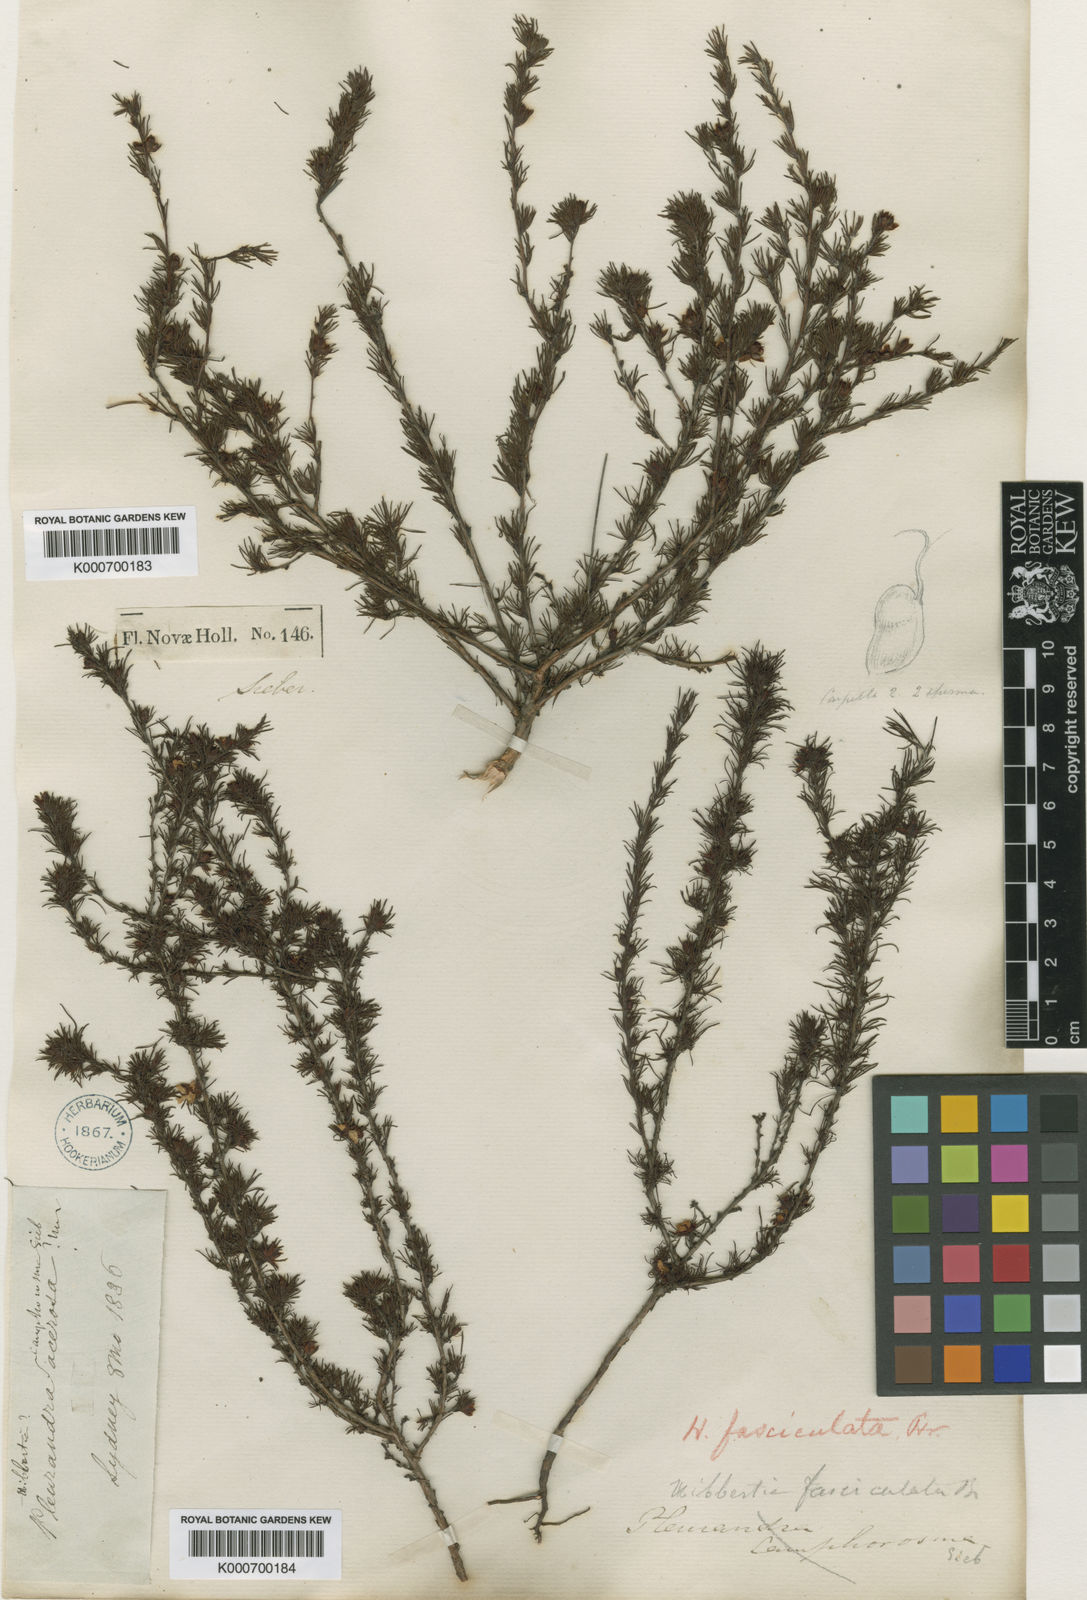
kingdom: Plantae
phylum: Tracheophyta
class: Magnoliopsida
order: Dilleniales
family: Dilleniaceae
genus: Hibbertia
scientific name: Hibbertia fasciculata
